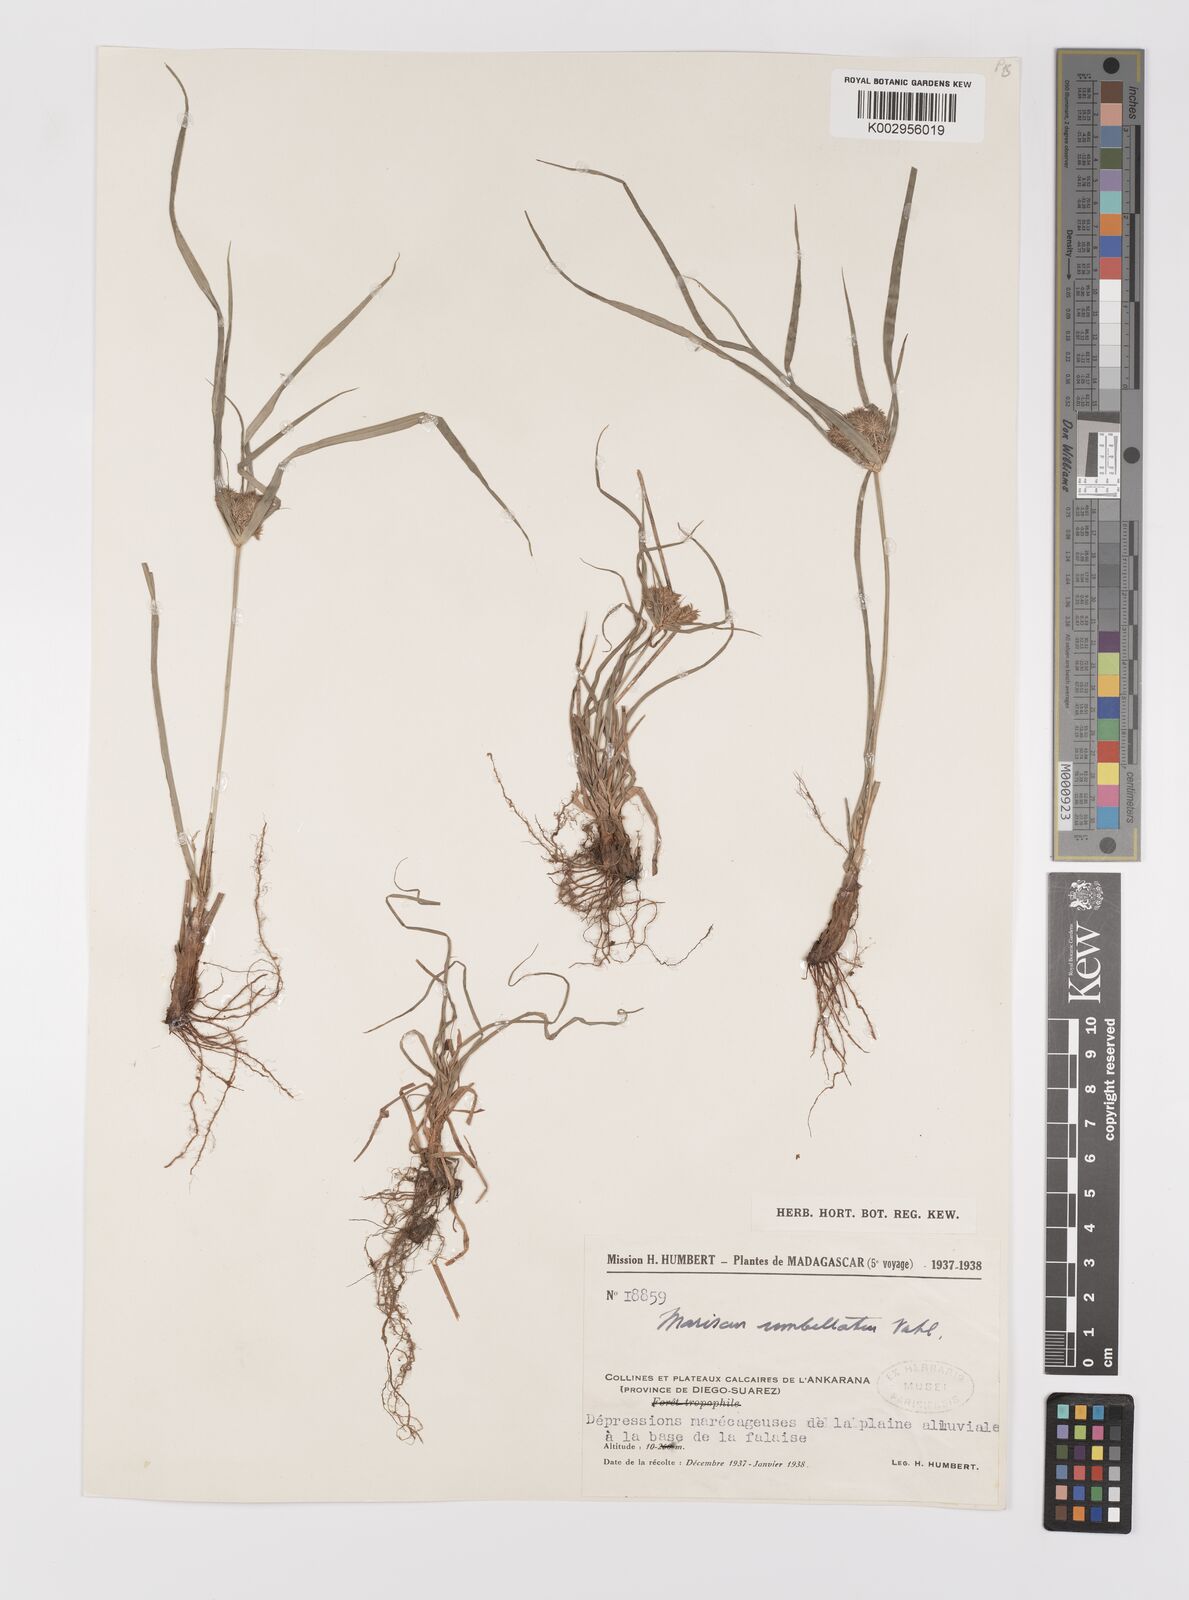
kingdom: Plantae
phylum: Tracheophyta
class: Liliopsida
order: Poales
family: Cyperaceae
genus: Cyperus
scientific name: Cyperus cyperoides
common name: Pacific island flat sedge
